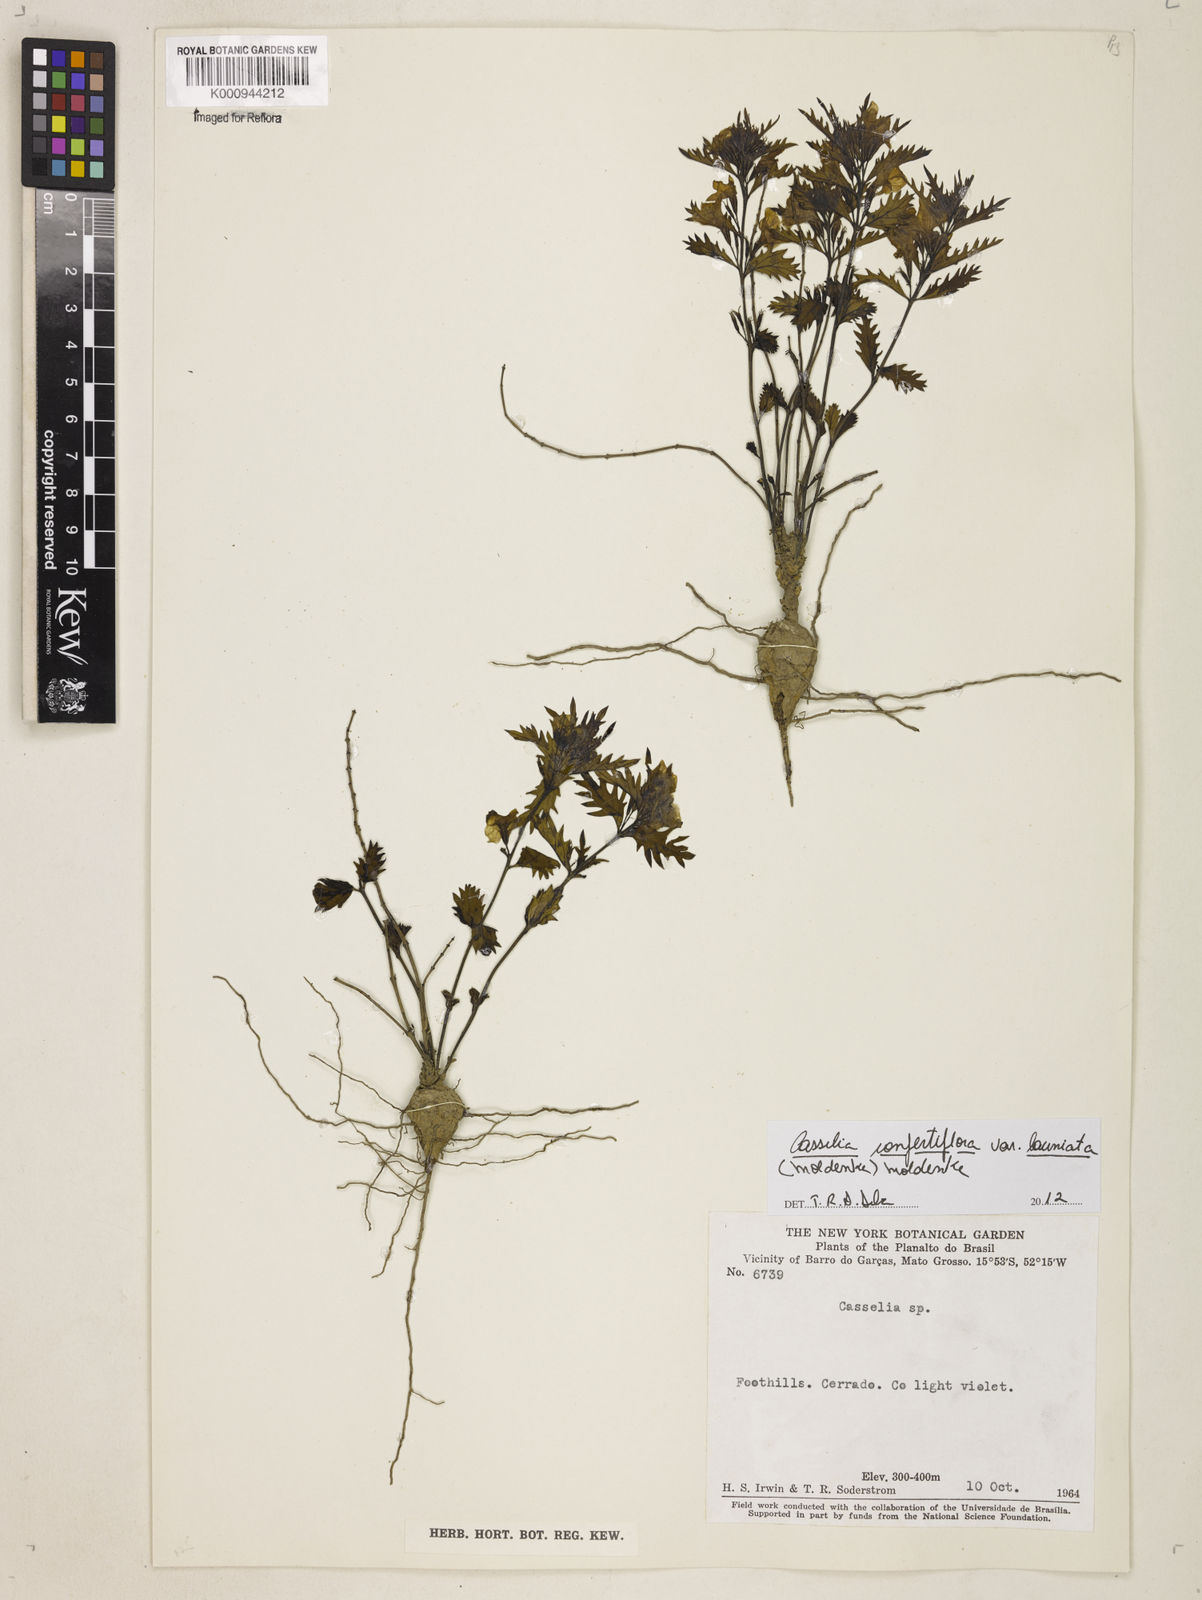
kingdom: Plantae
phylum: Tracheophyta
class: Magnoliopsida
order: Lamiales
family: Verbenaceae
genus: Casselia
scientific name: Casselia
